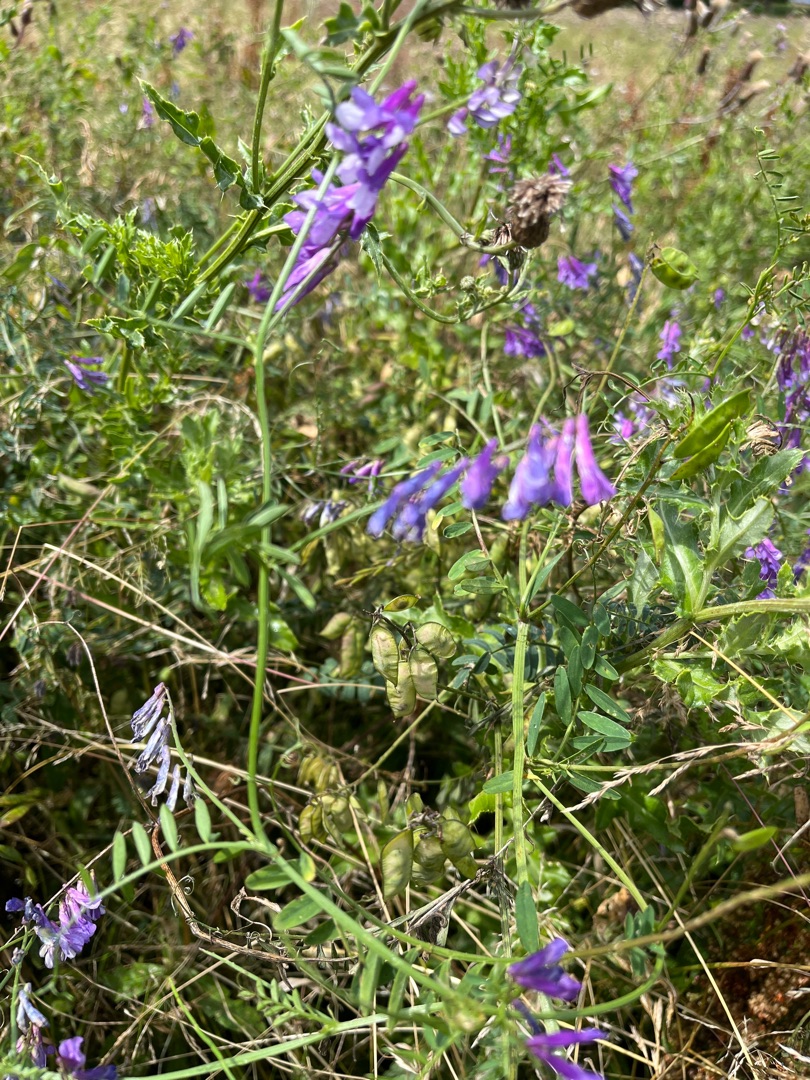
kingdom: Plantae
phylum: Tracheophyta
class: Magnoliopsida
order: Fabales
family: Fabaceae
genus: Vicia
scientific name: Vicia villosa
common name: Sand-vikke
